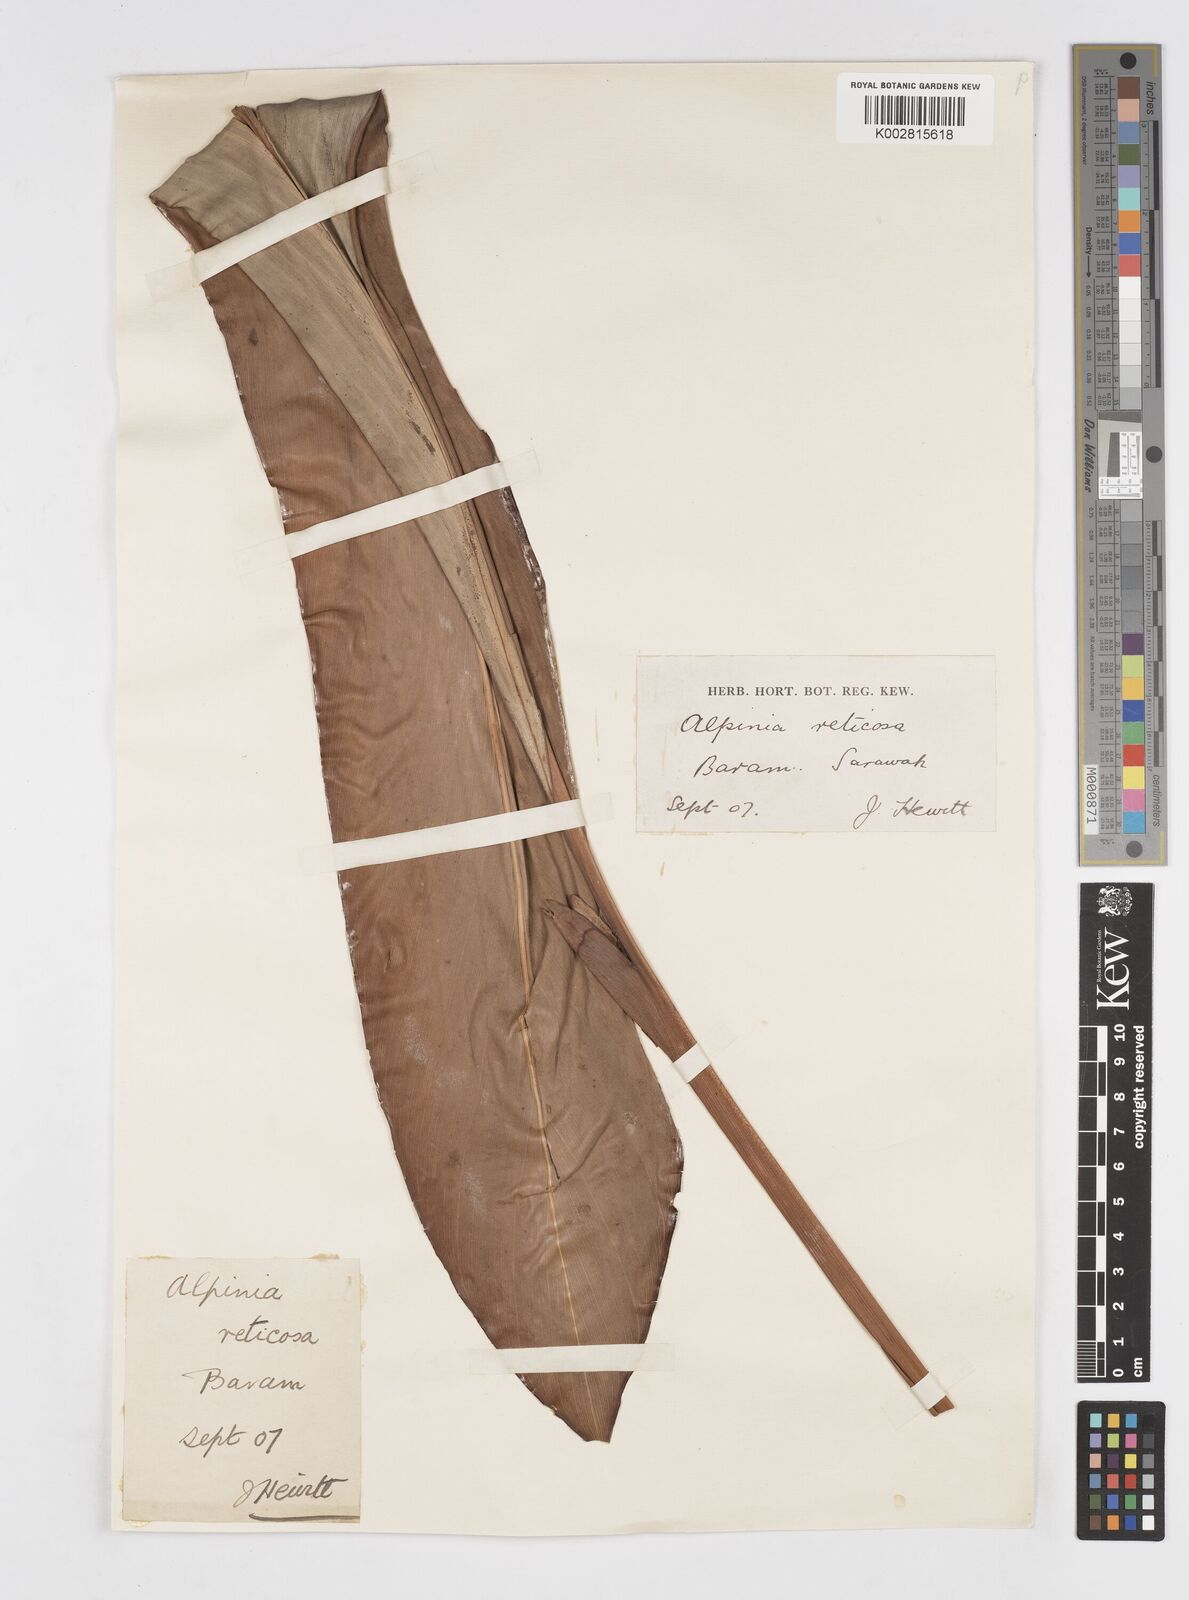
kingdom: Plantae
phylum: Tracheophyta
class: Liliopsida
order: Zingiberales
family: Zingiberaceae
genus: Alpinia
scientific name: Alpinia ligulata
